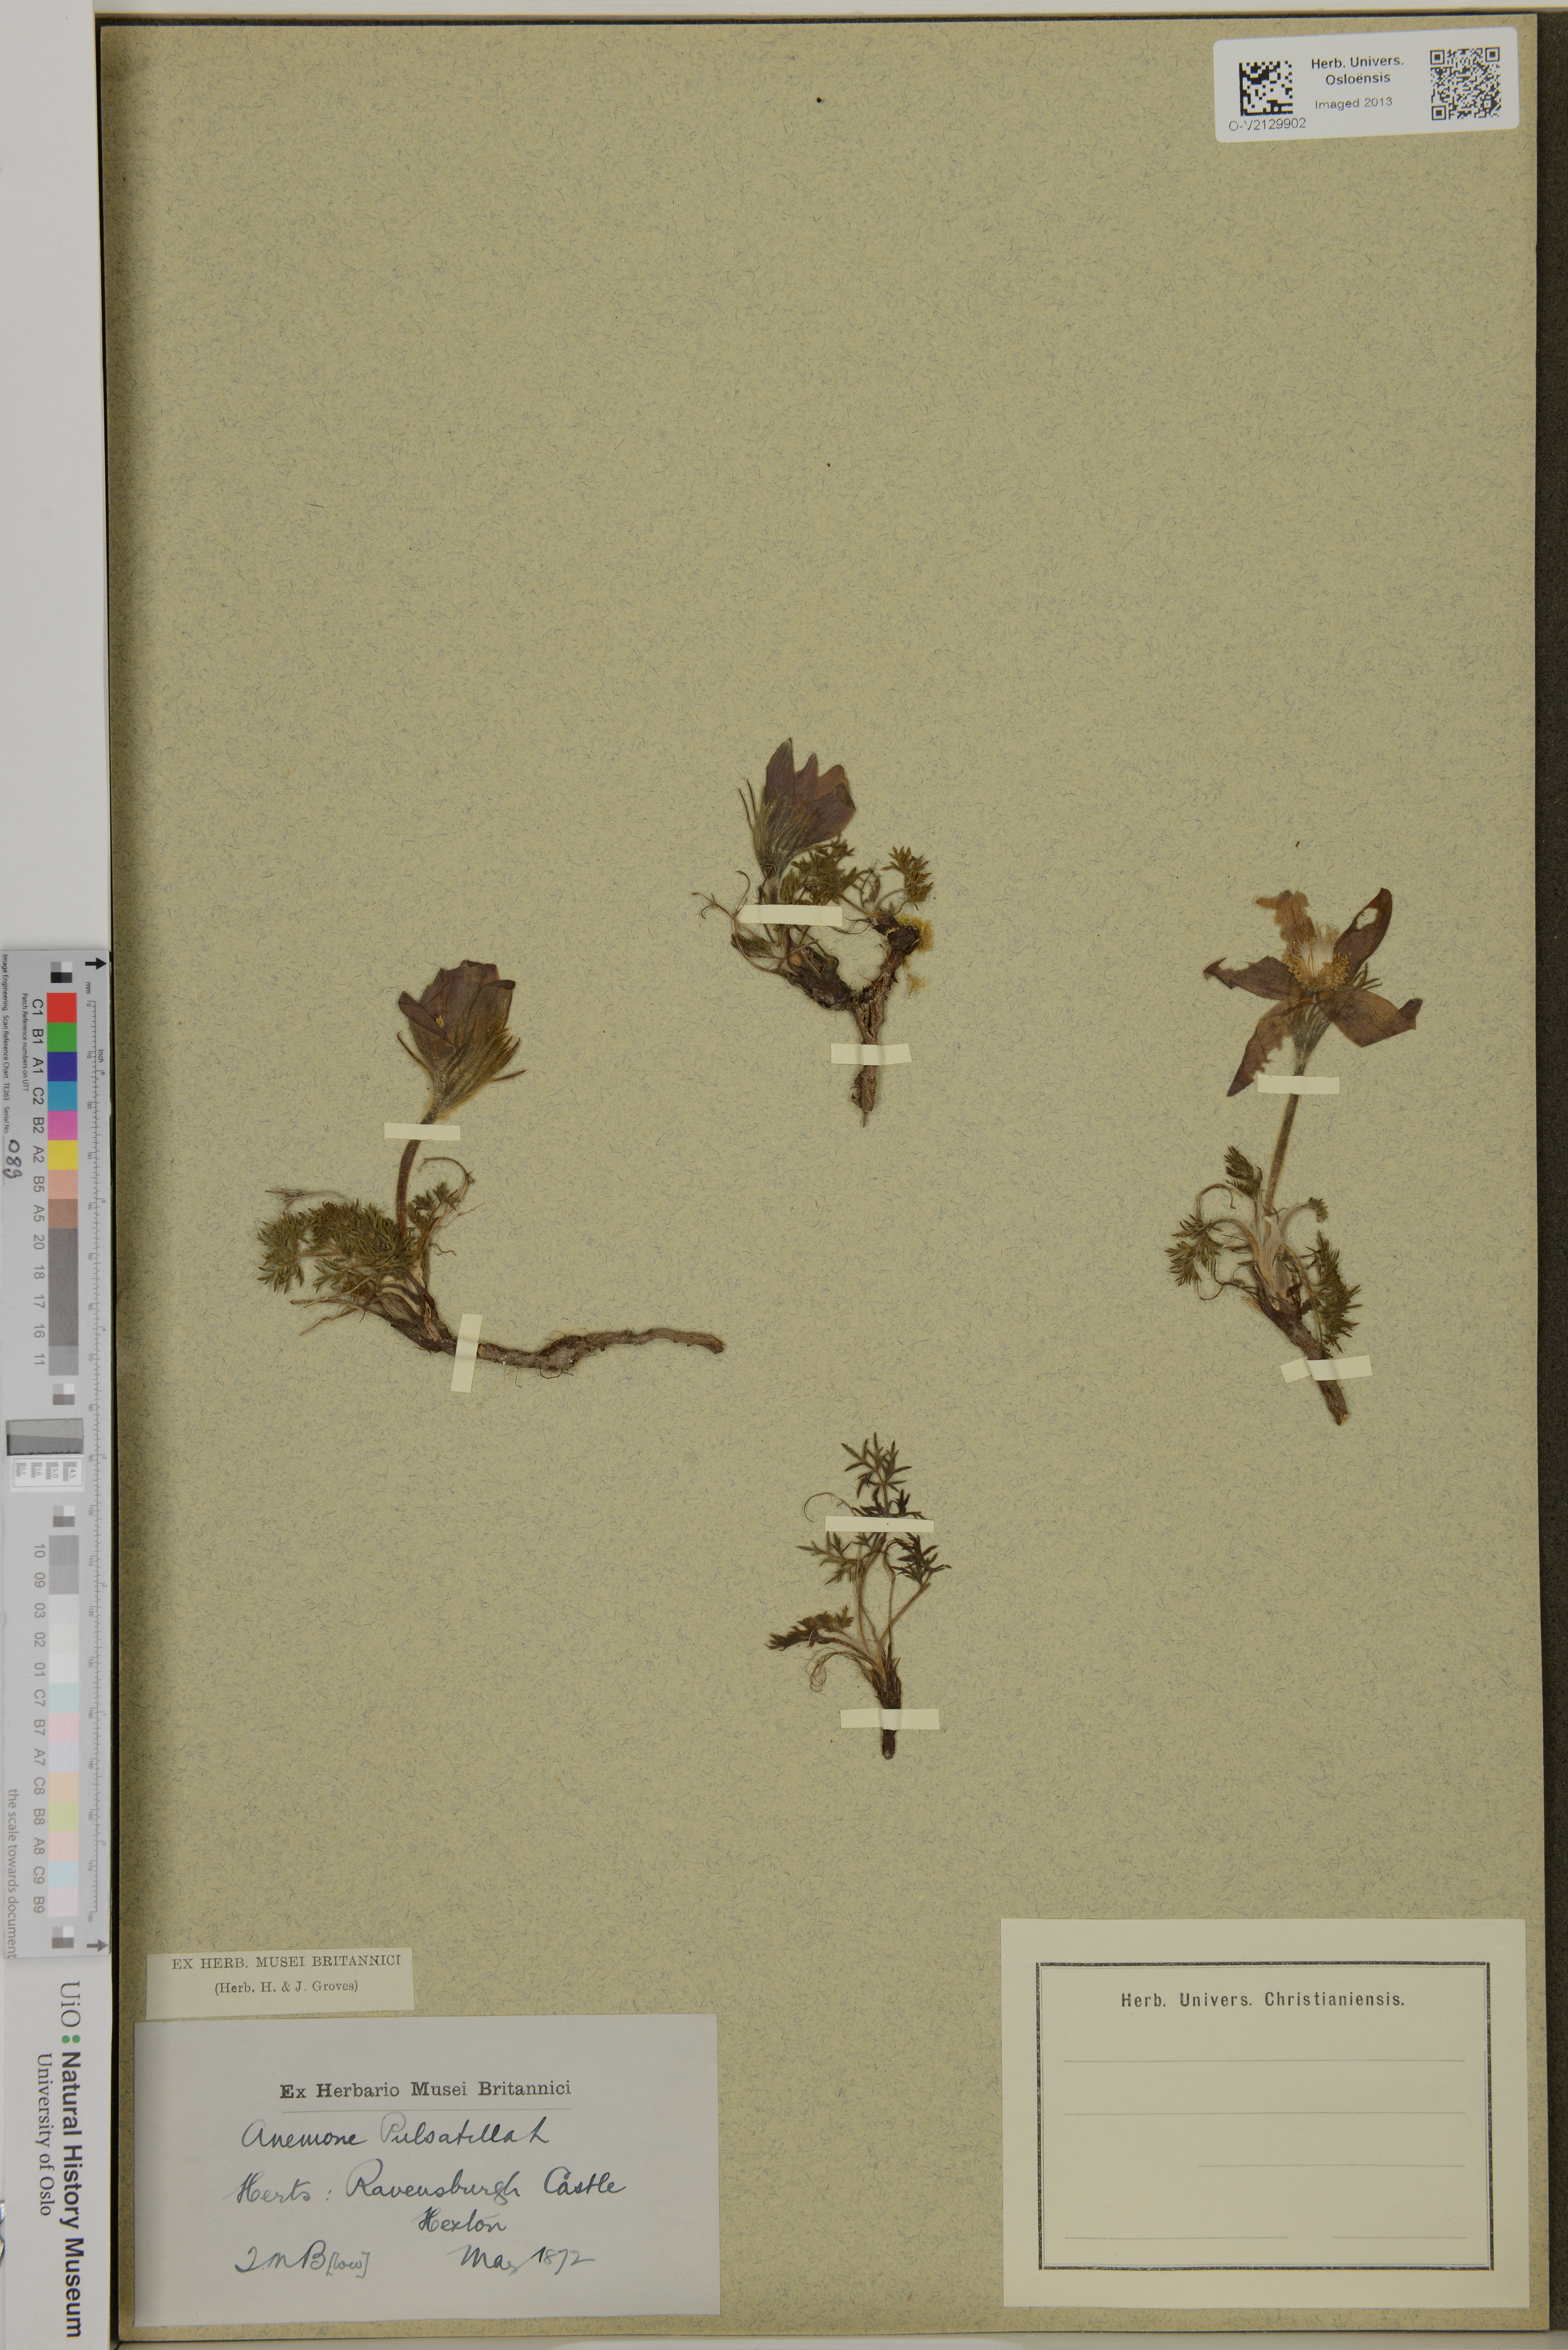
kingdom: Plantae
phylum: Tracheophyta
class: Magnoliopsida
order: Ranunculales
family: Ranunculaceae
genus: Pulsatilla
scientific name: Pulsatilla
